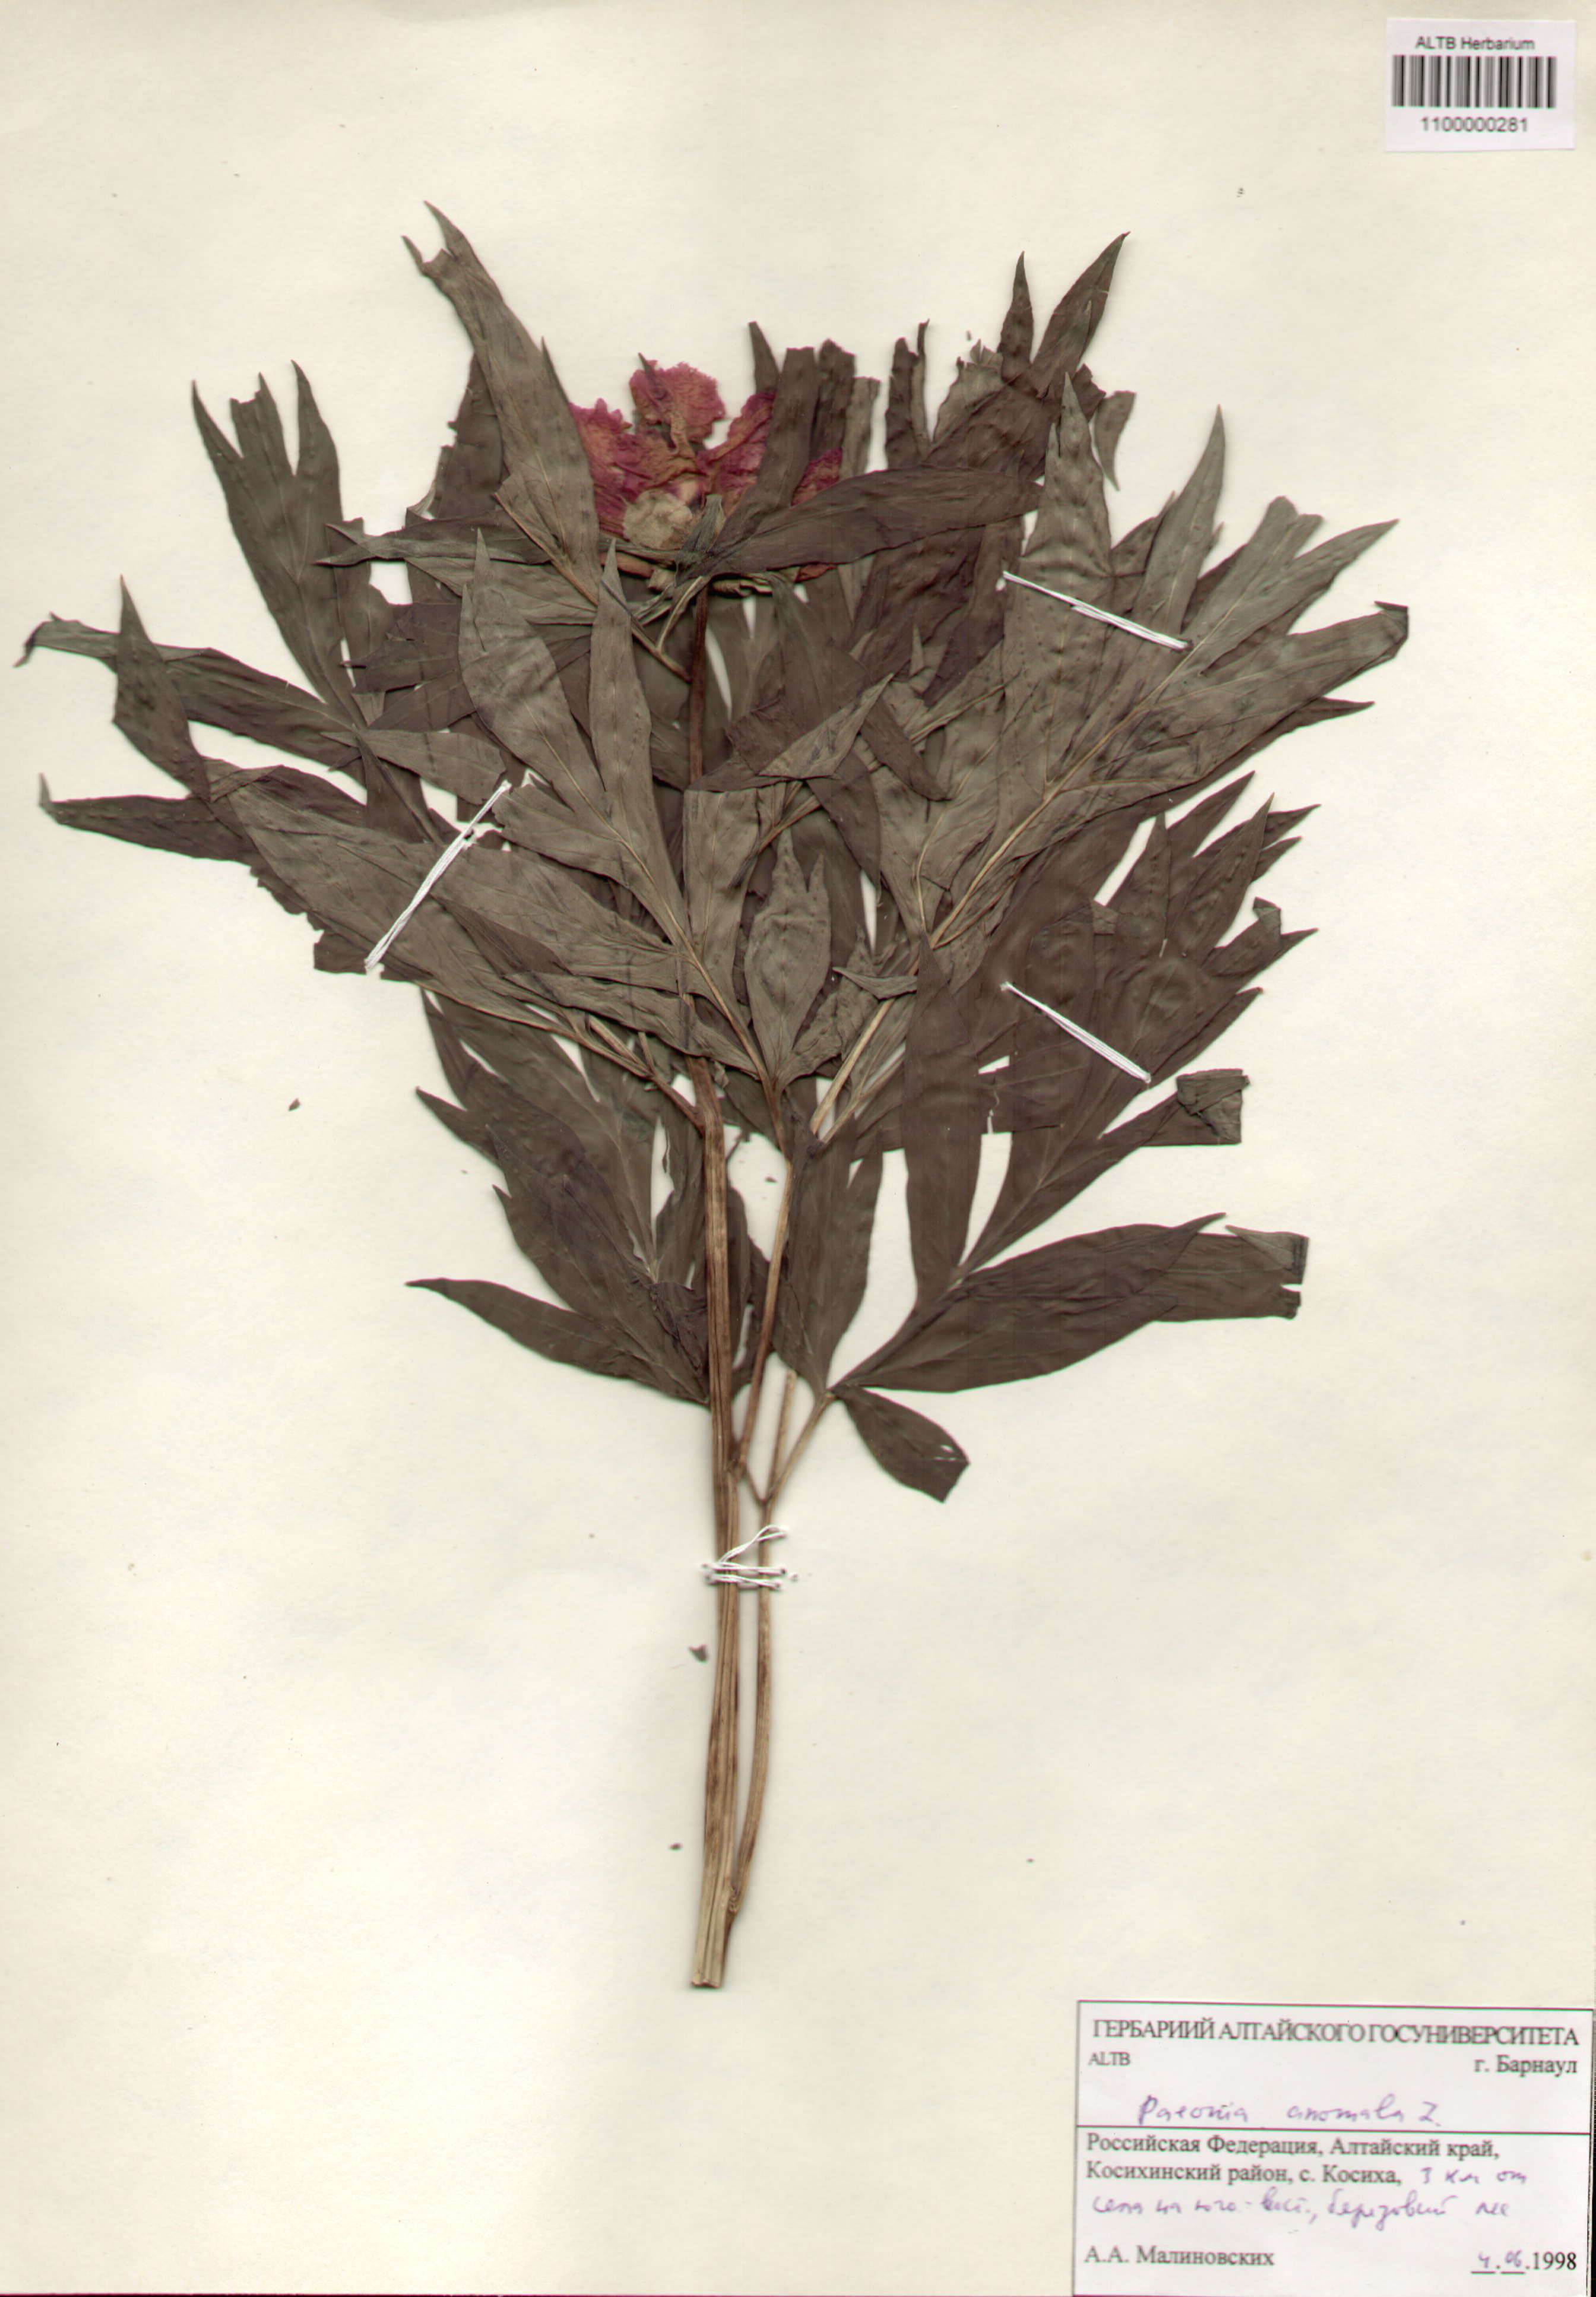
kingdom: Plantae
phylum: Tracheophyta
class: Magnoliopsida
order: Saxifragales
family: Paeoniaceae
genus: Paeonia
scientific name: Paeonia anomala
